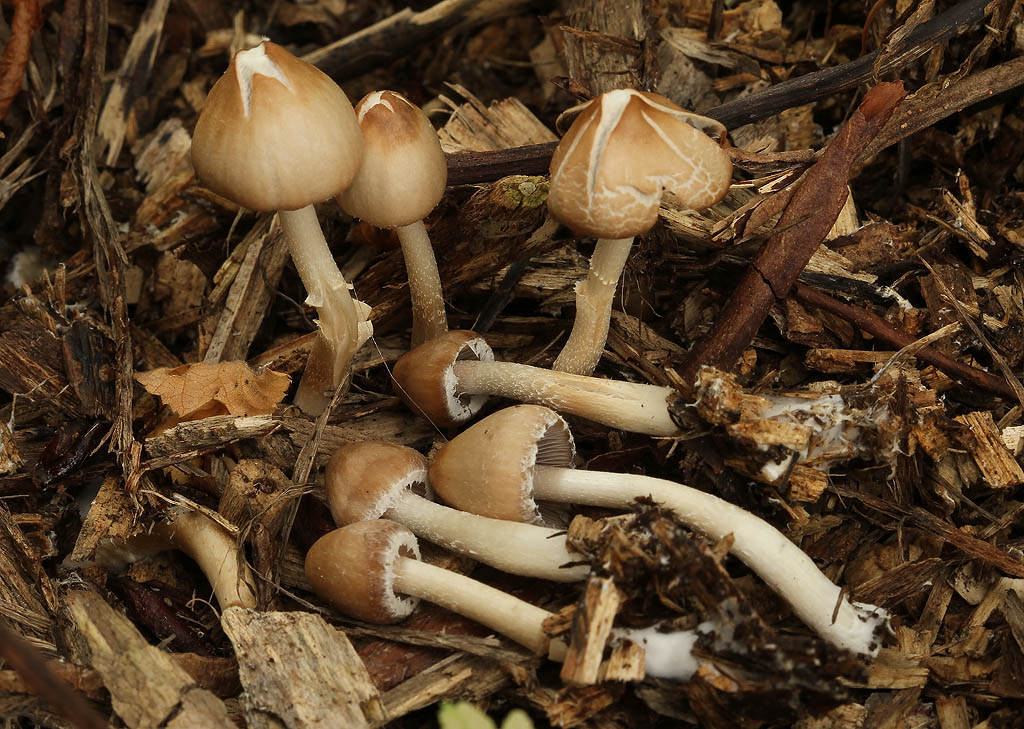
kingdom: Fungi
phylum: Basidiomycota
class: Agaricomycetes
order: Agaricales
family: Psathyrellaceae
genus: Coprinopsis
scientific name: Coprinopsis marcescibilis
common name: ruderat-blækhat
